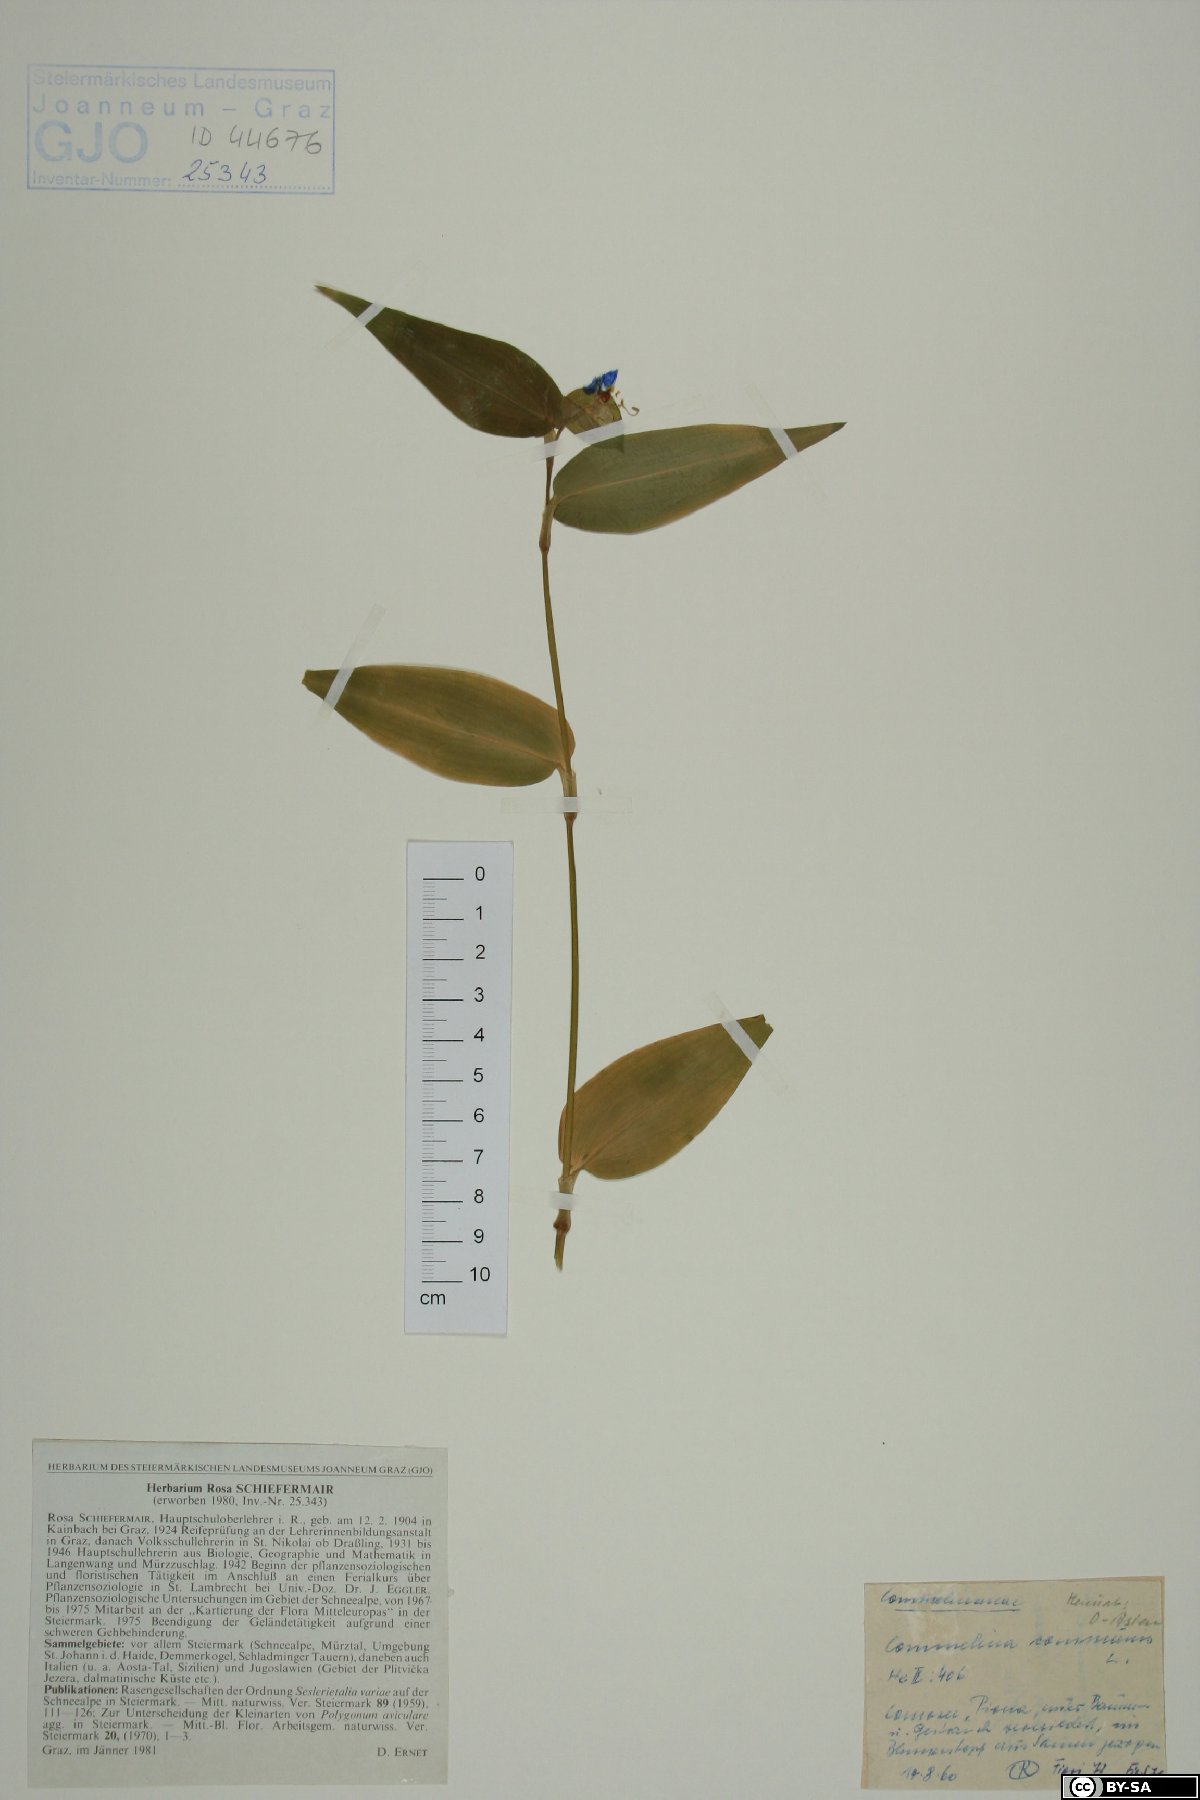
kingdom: Plantae
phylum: Tracheophyta
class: Liliopsida
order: Commelinales
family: Commelinaceae
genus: Commelina
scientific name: Commelina communis
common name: Asiatic dayflower
